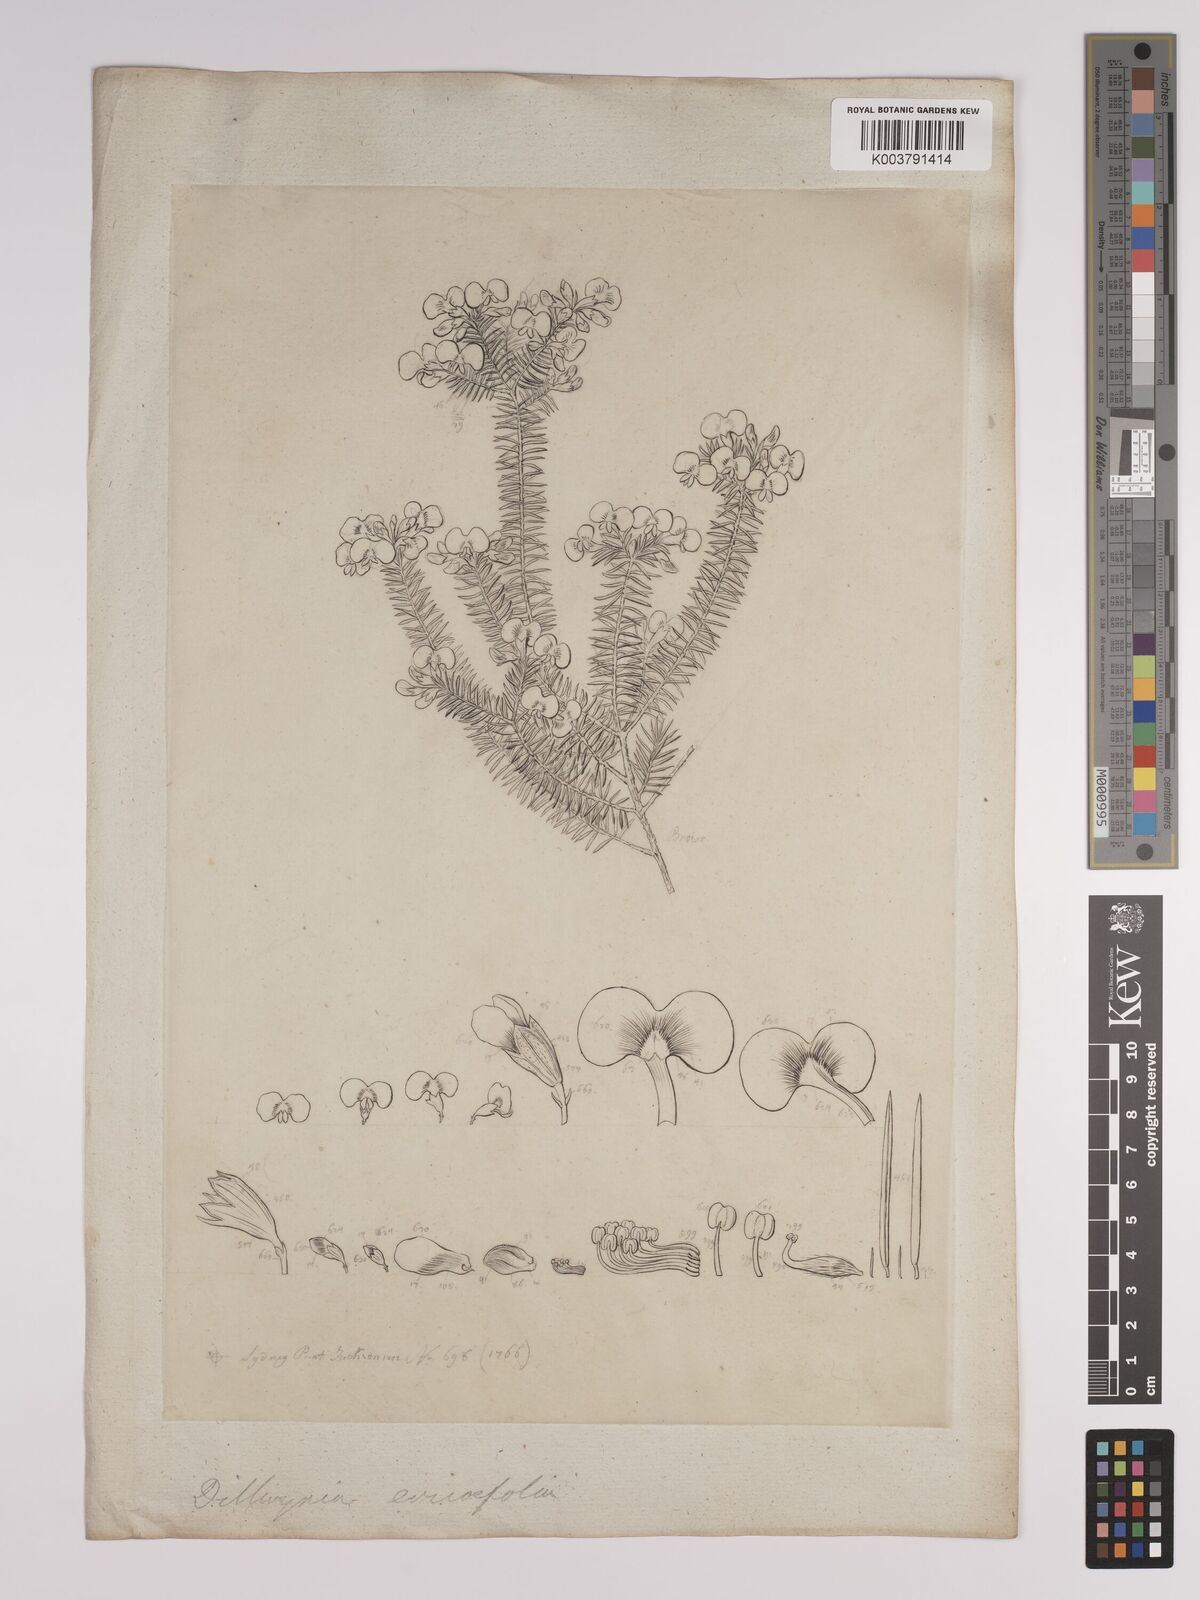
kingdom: Plantae
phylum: Tracheophyta
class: Magnoliopsida
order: Fabales
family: Fabaceae
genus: Dillwynia
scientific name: Dillwynia retorta
